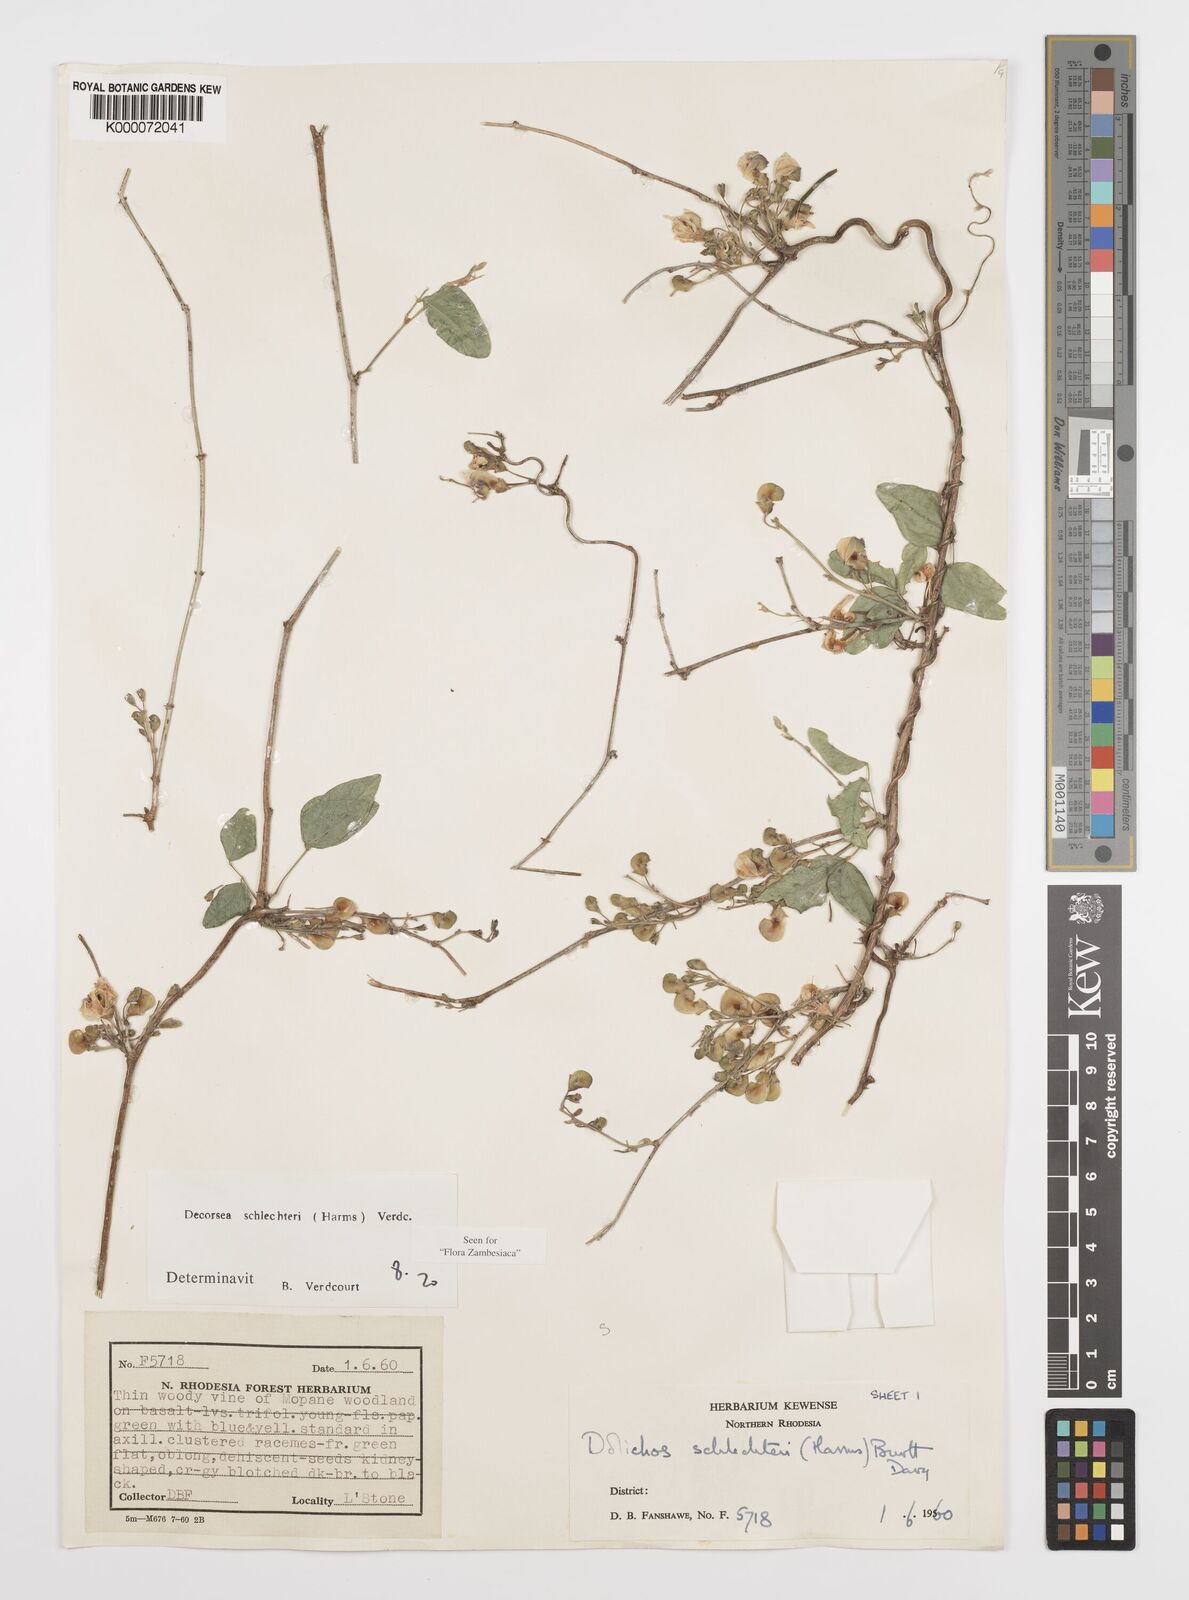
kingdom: Plantae
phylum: Tracheophyta
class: Magnoliopsida
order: Fabales
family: Fabaceae
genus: Decorsea
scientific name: Decorsea schlechteri
